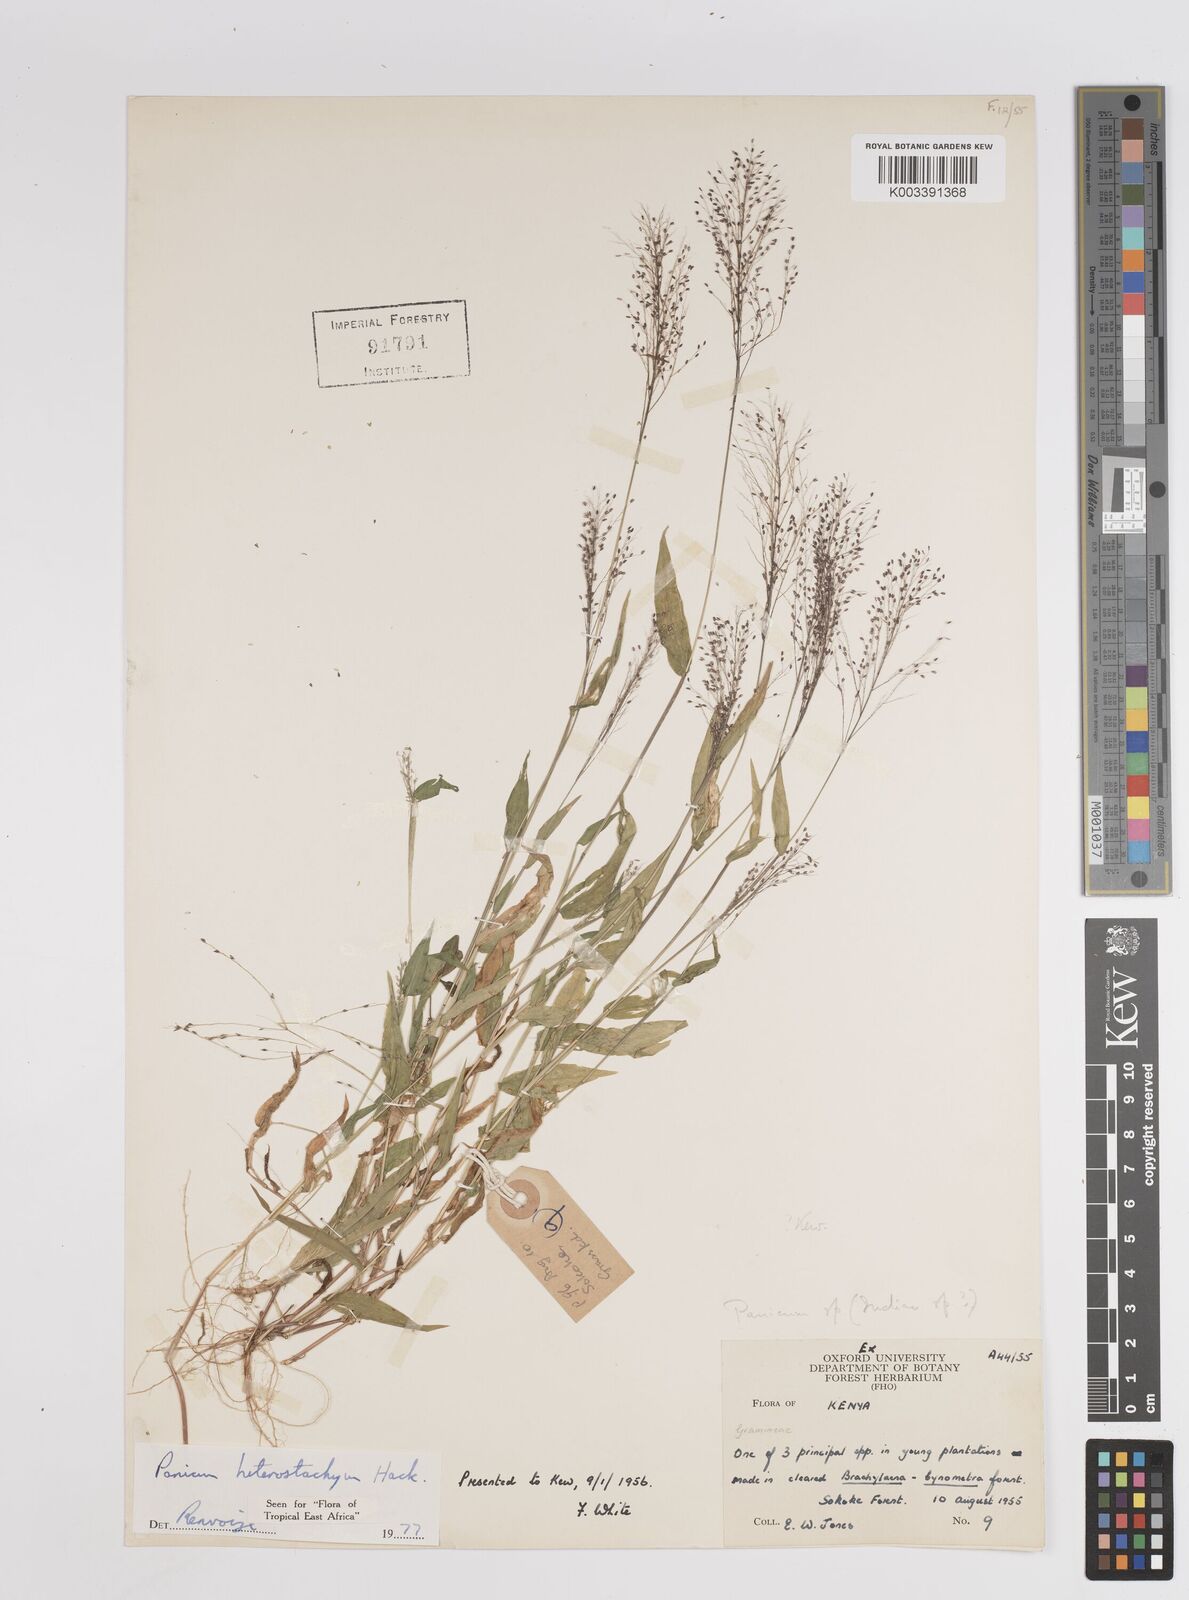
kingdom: Plantae
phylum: Tracheophyta
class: Liliopsida
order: Poales
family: Poaceae
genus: Panicum
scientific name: Panicum hirtum
